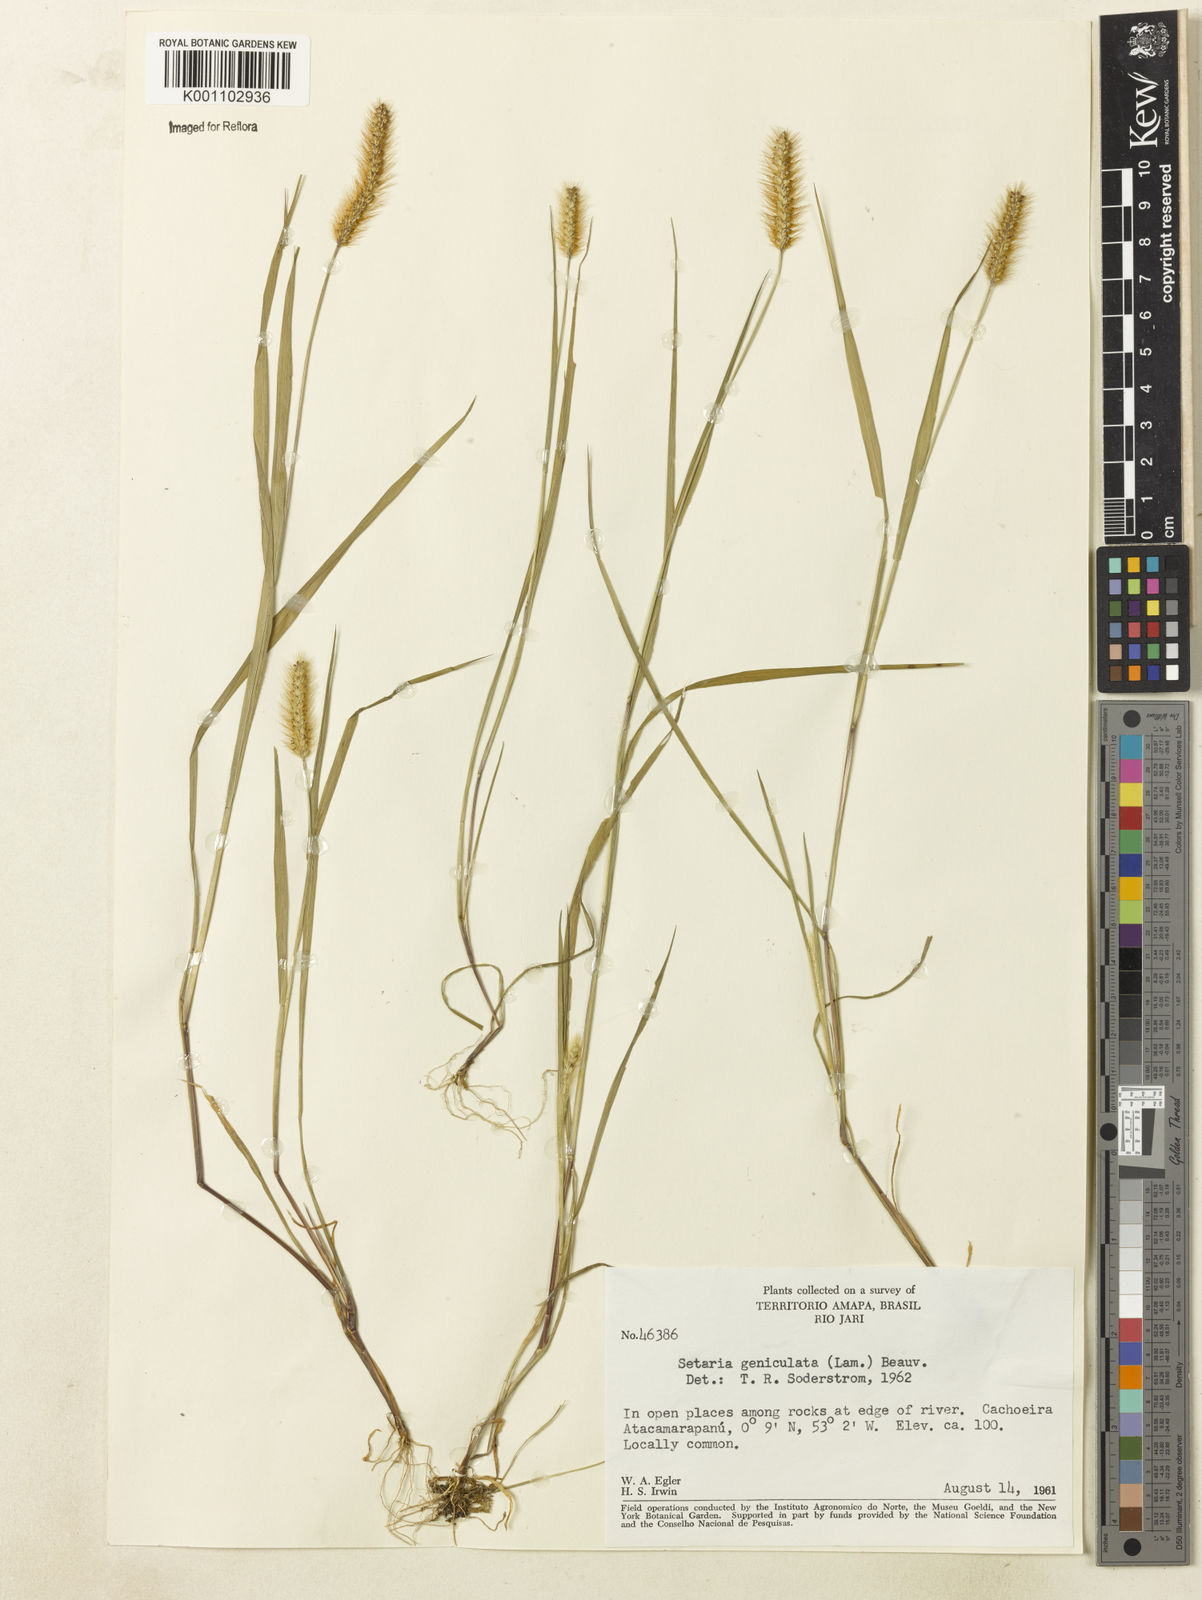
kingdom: Plantae
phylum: Tracheophyta
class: Liliopsida
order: Poales
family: Poaceae
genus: Setaria
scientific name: Setaria pumila
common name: Yellow bristle-grass
